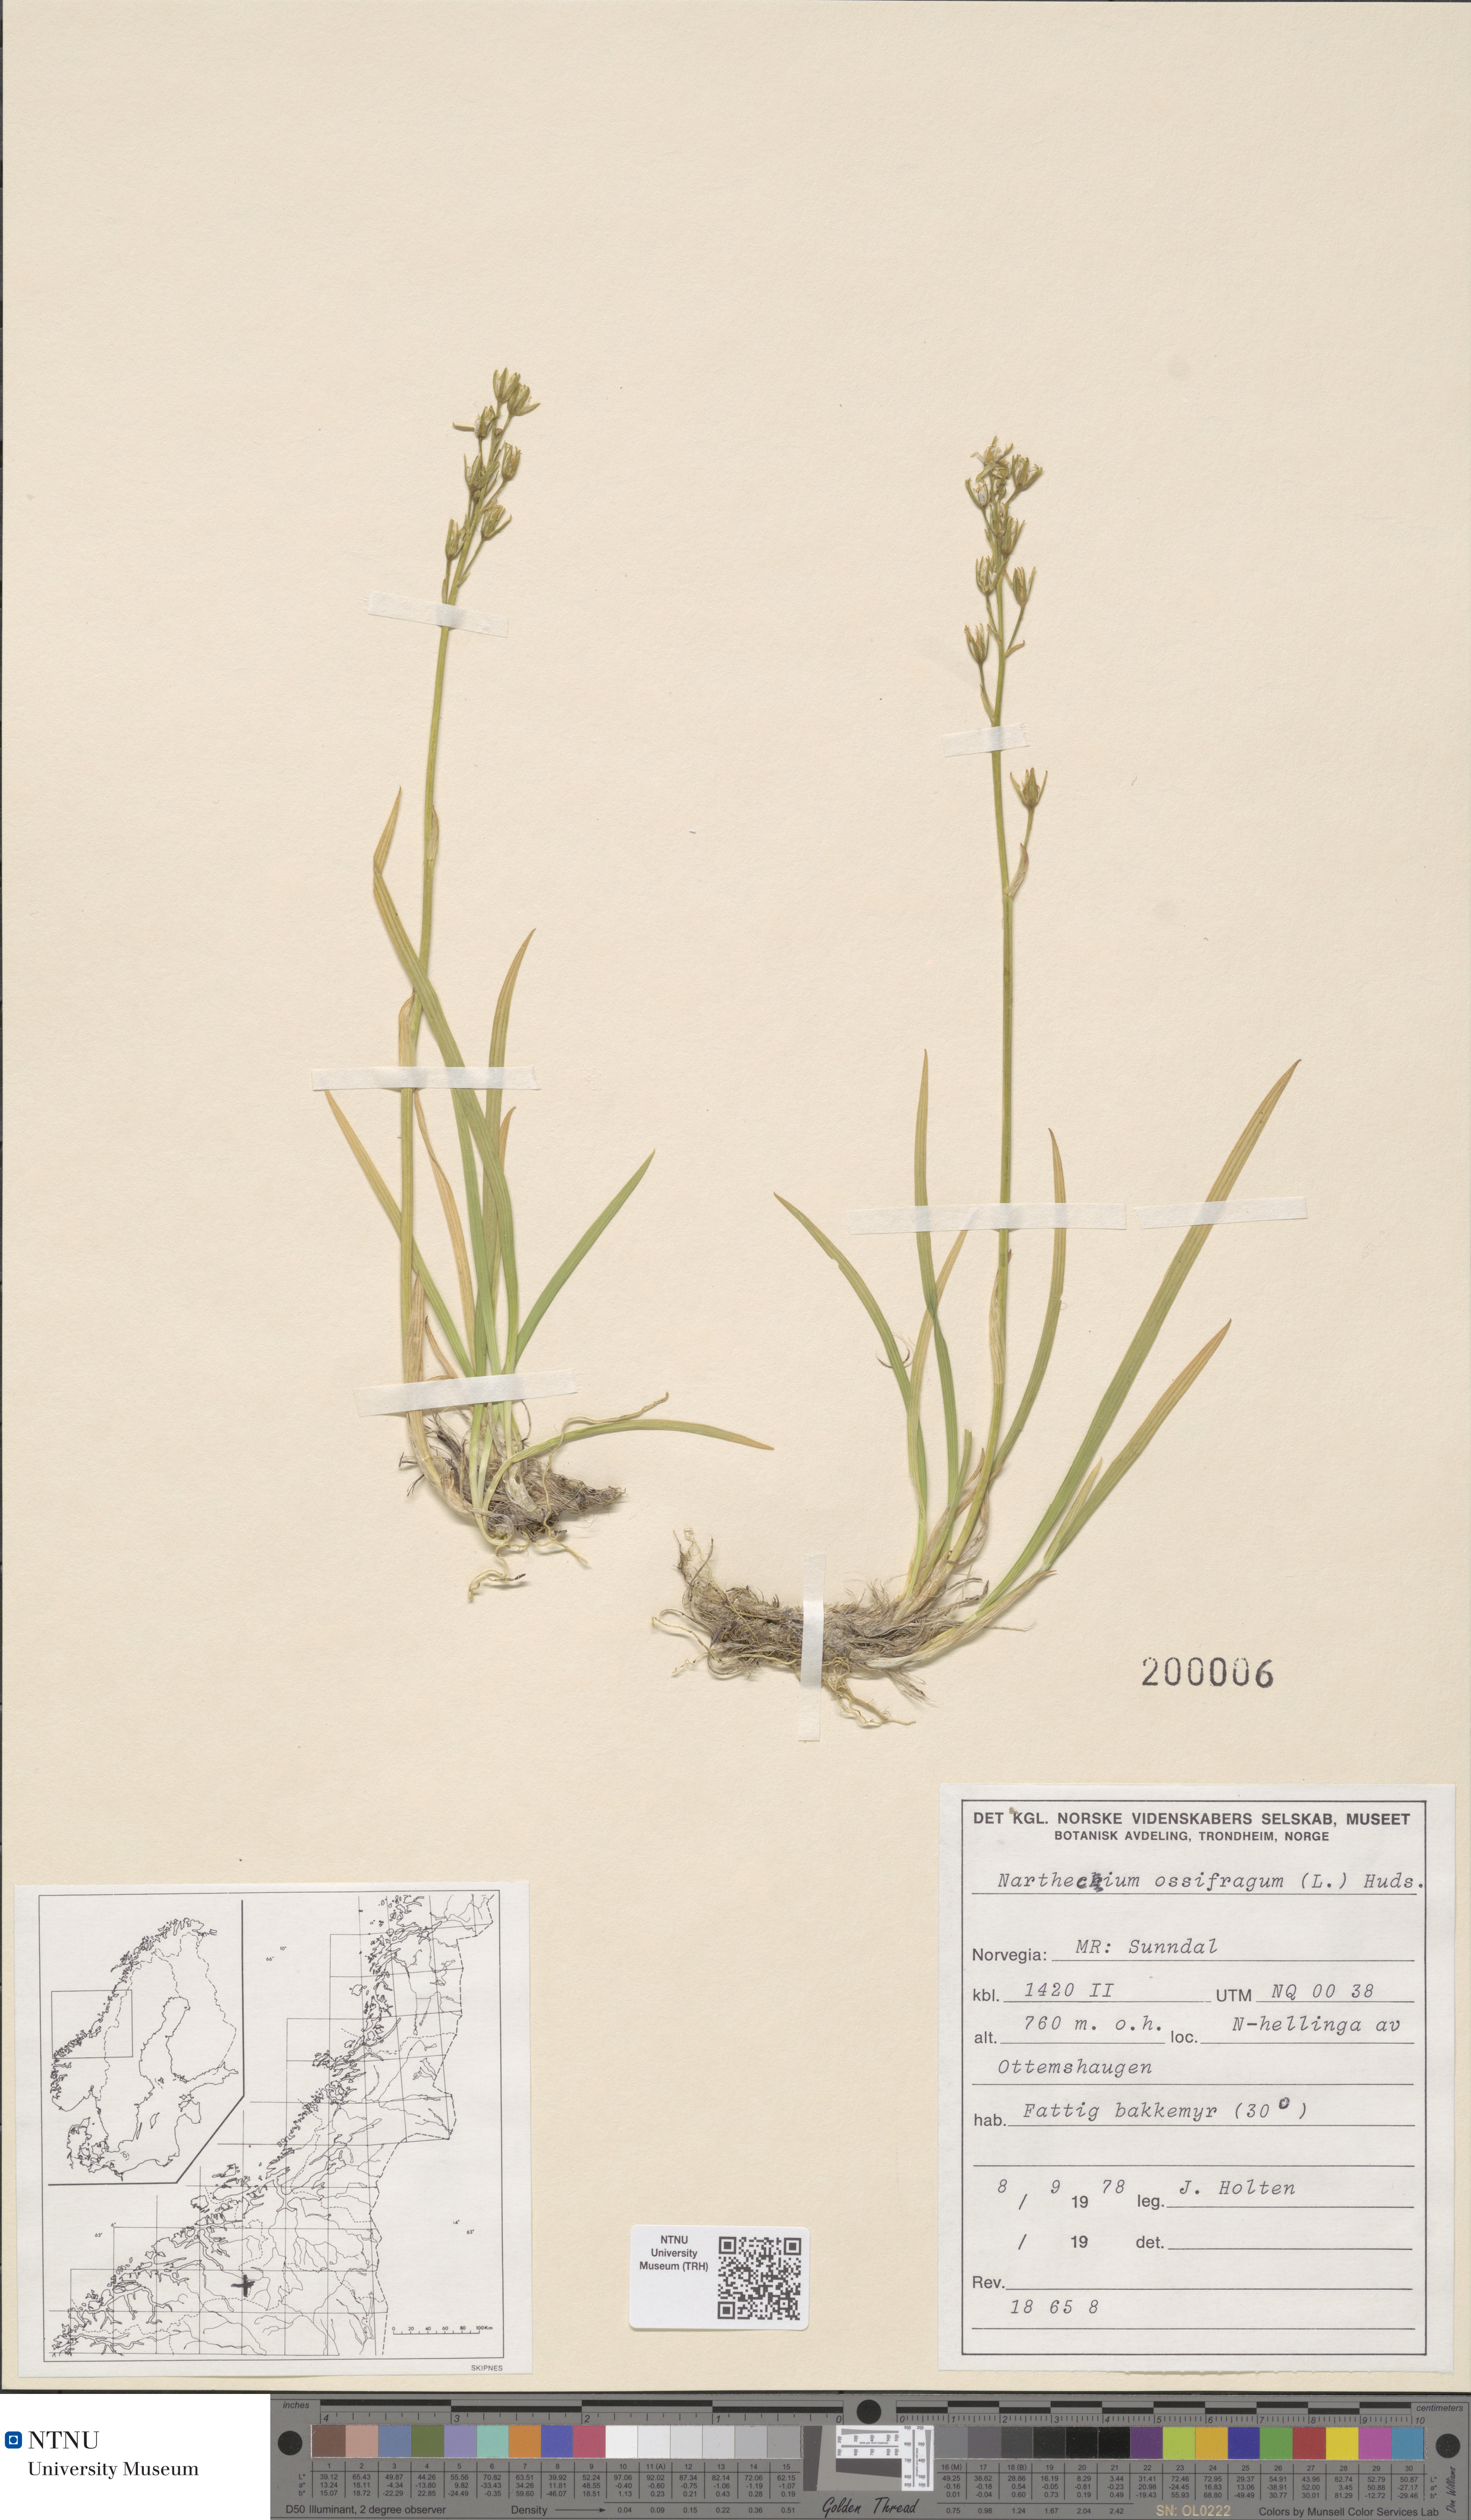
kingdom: Plantae
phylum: Tracheophyta
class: Liliopsida
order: Dioscoreales
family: Nartheciaceae
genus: Narthecium
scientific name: Narthecium ossifragum
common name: Bog asphodel
